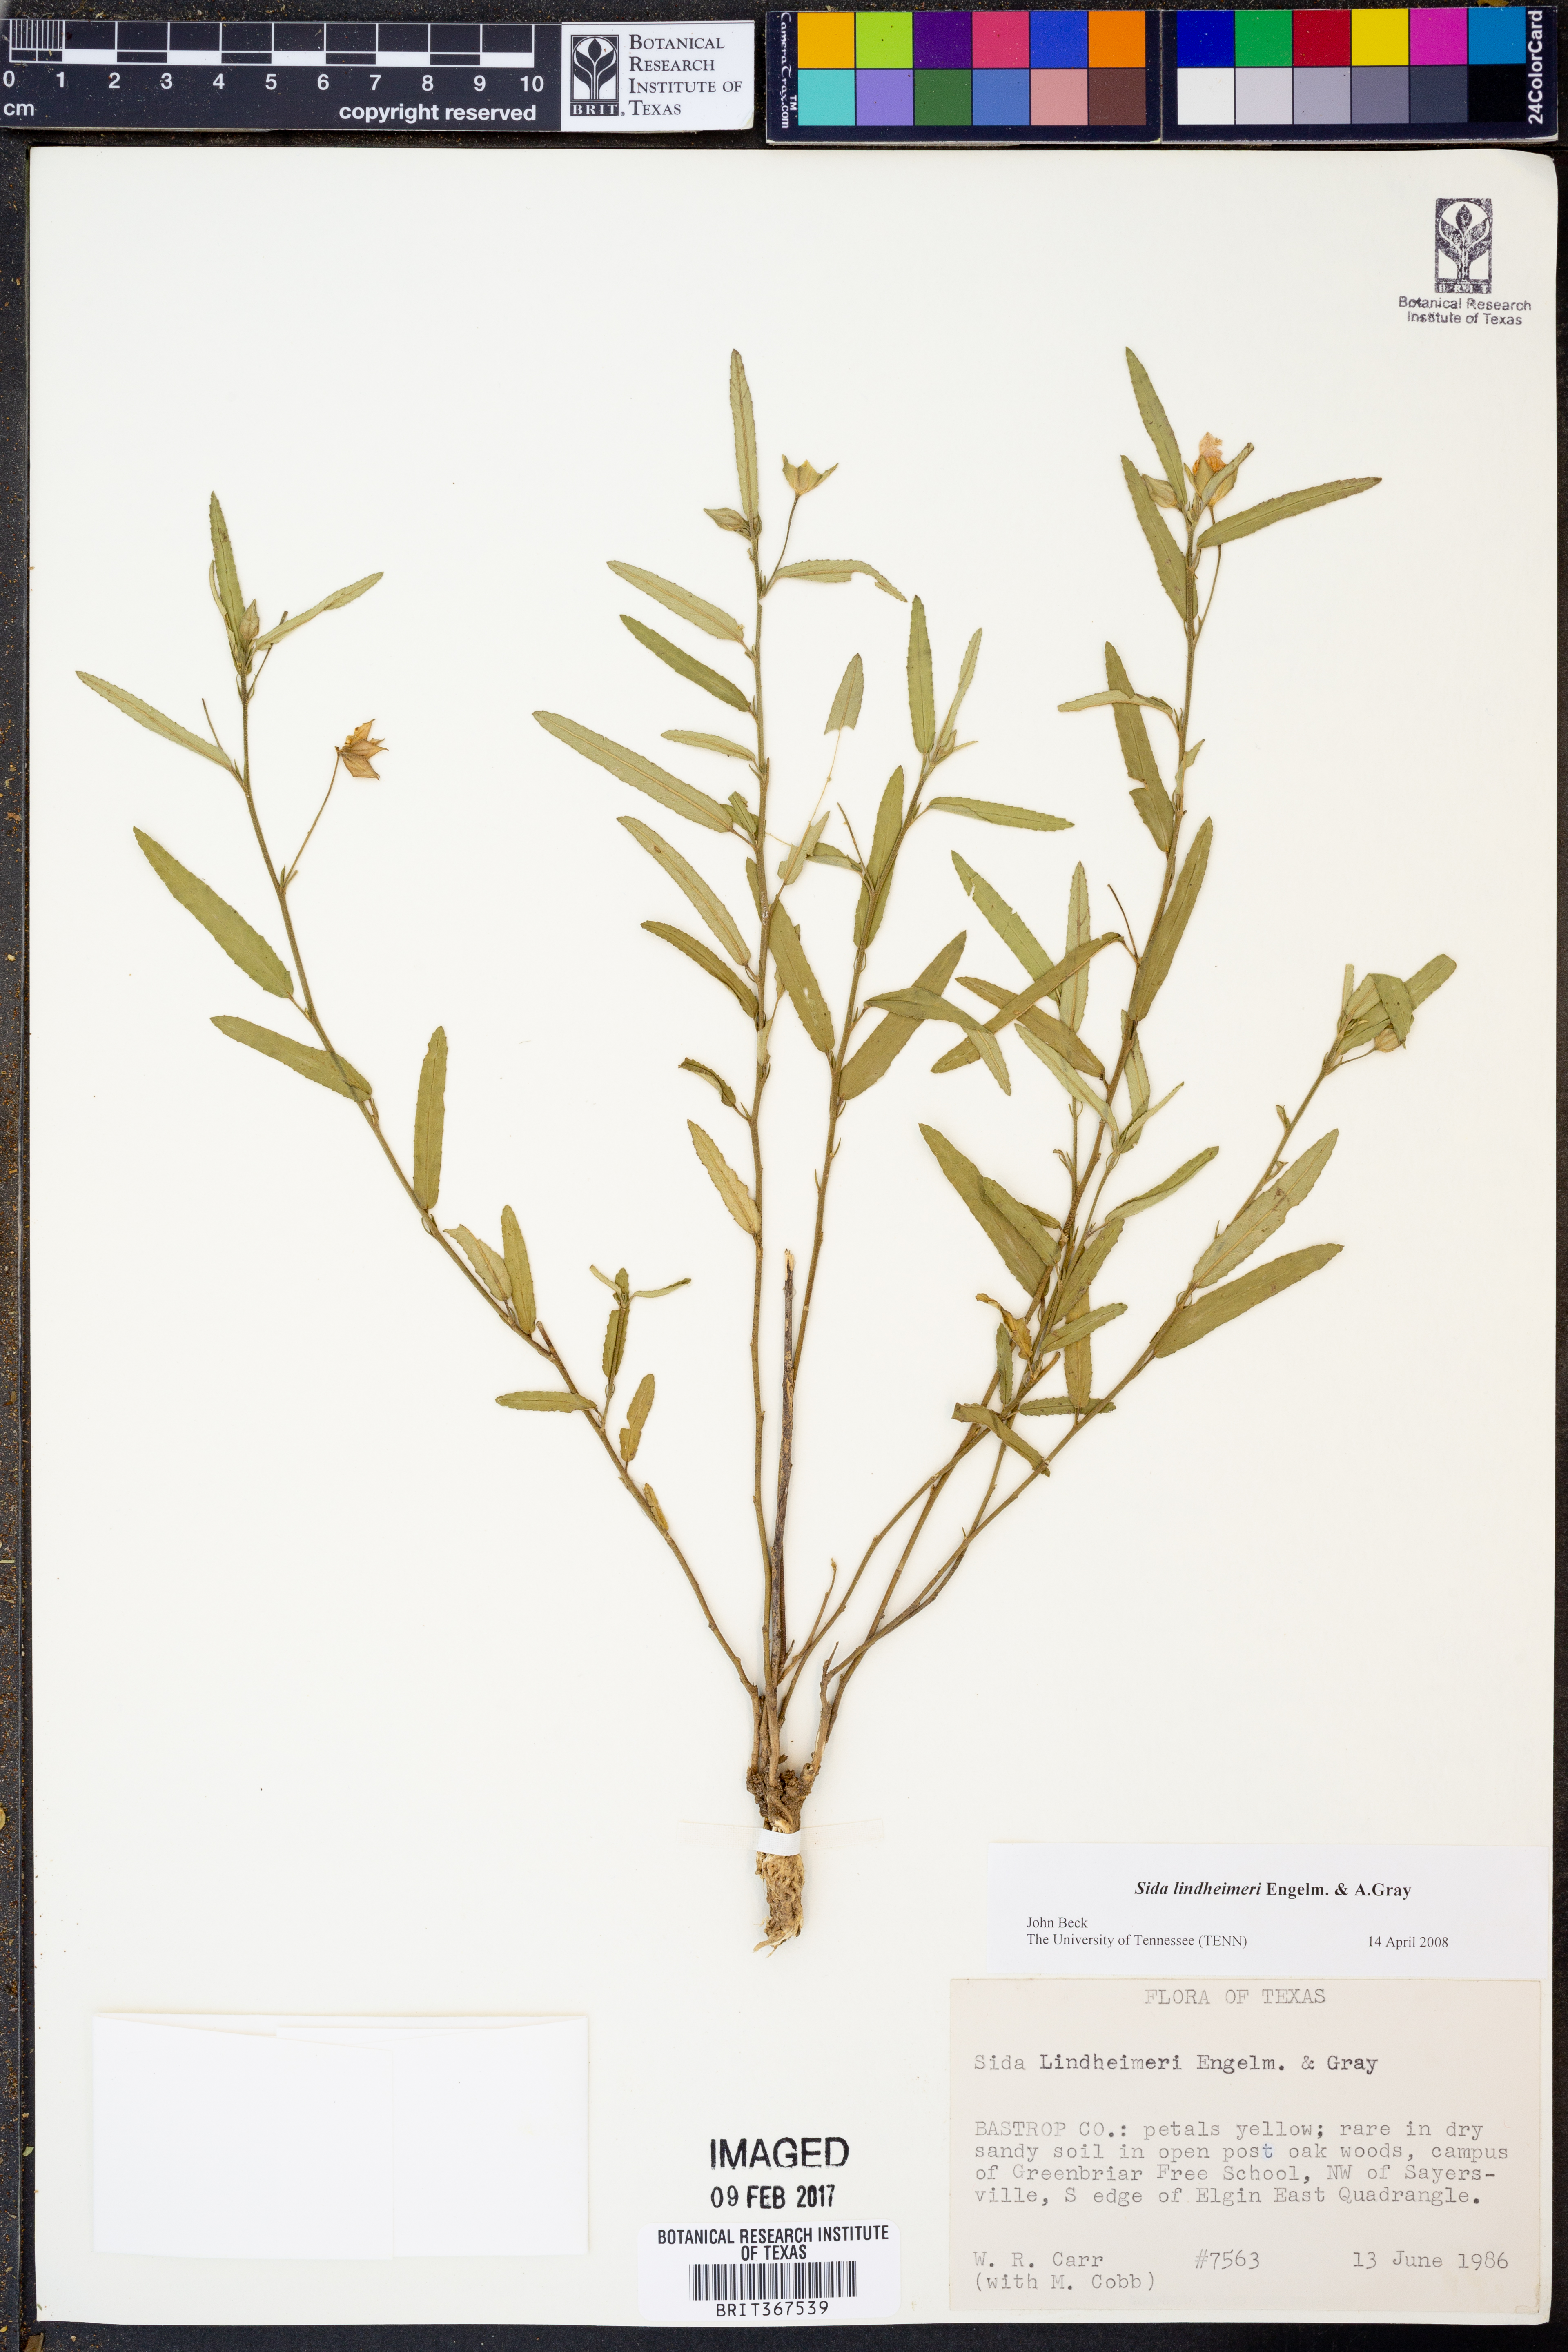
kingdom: Plantae
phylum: Tracheophyta
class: Magnoliopsida
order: Malvales
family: Malvaceae
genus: Sida
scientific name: Sida lindheimeri
